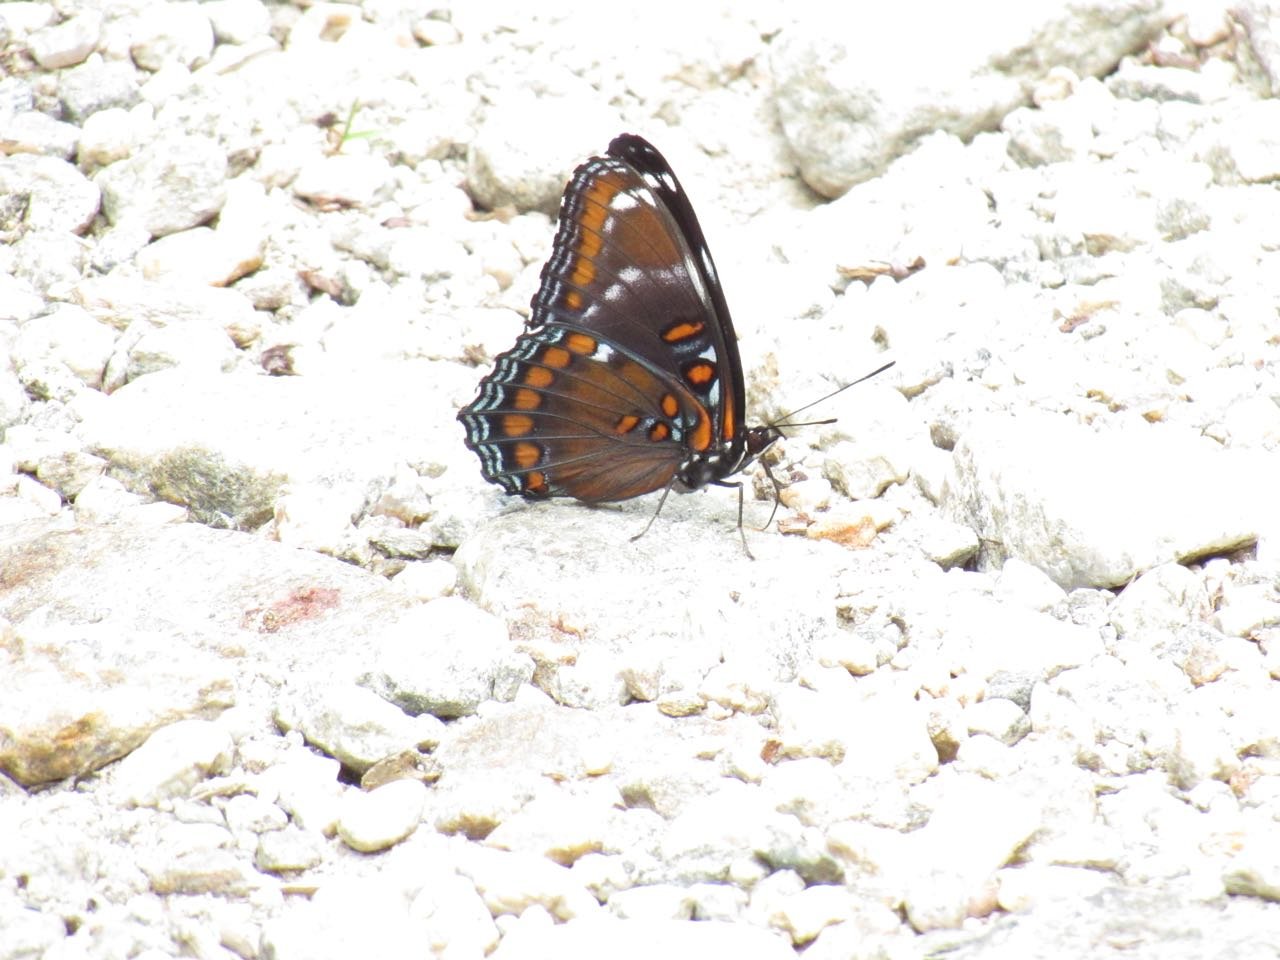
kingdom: Animalia
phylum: Arthropoda
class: Insecta
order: Lepidoptera
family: Nymphalidae
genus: Limenitis
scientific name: Limenitis
